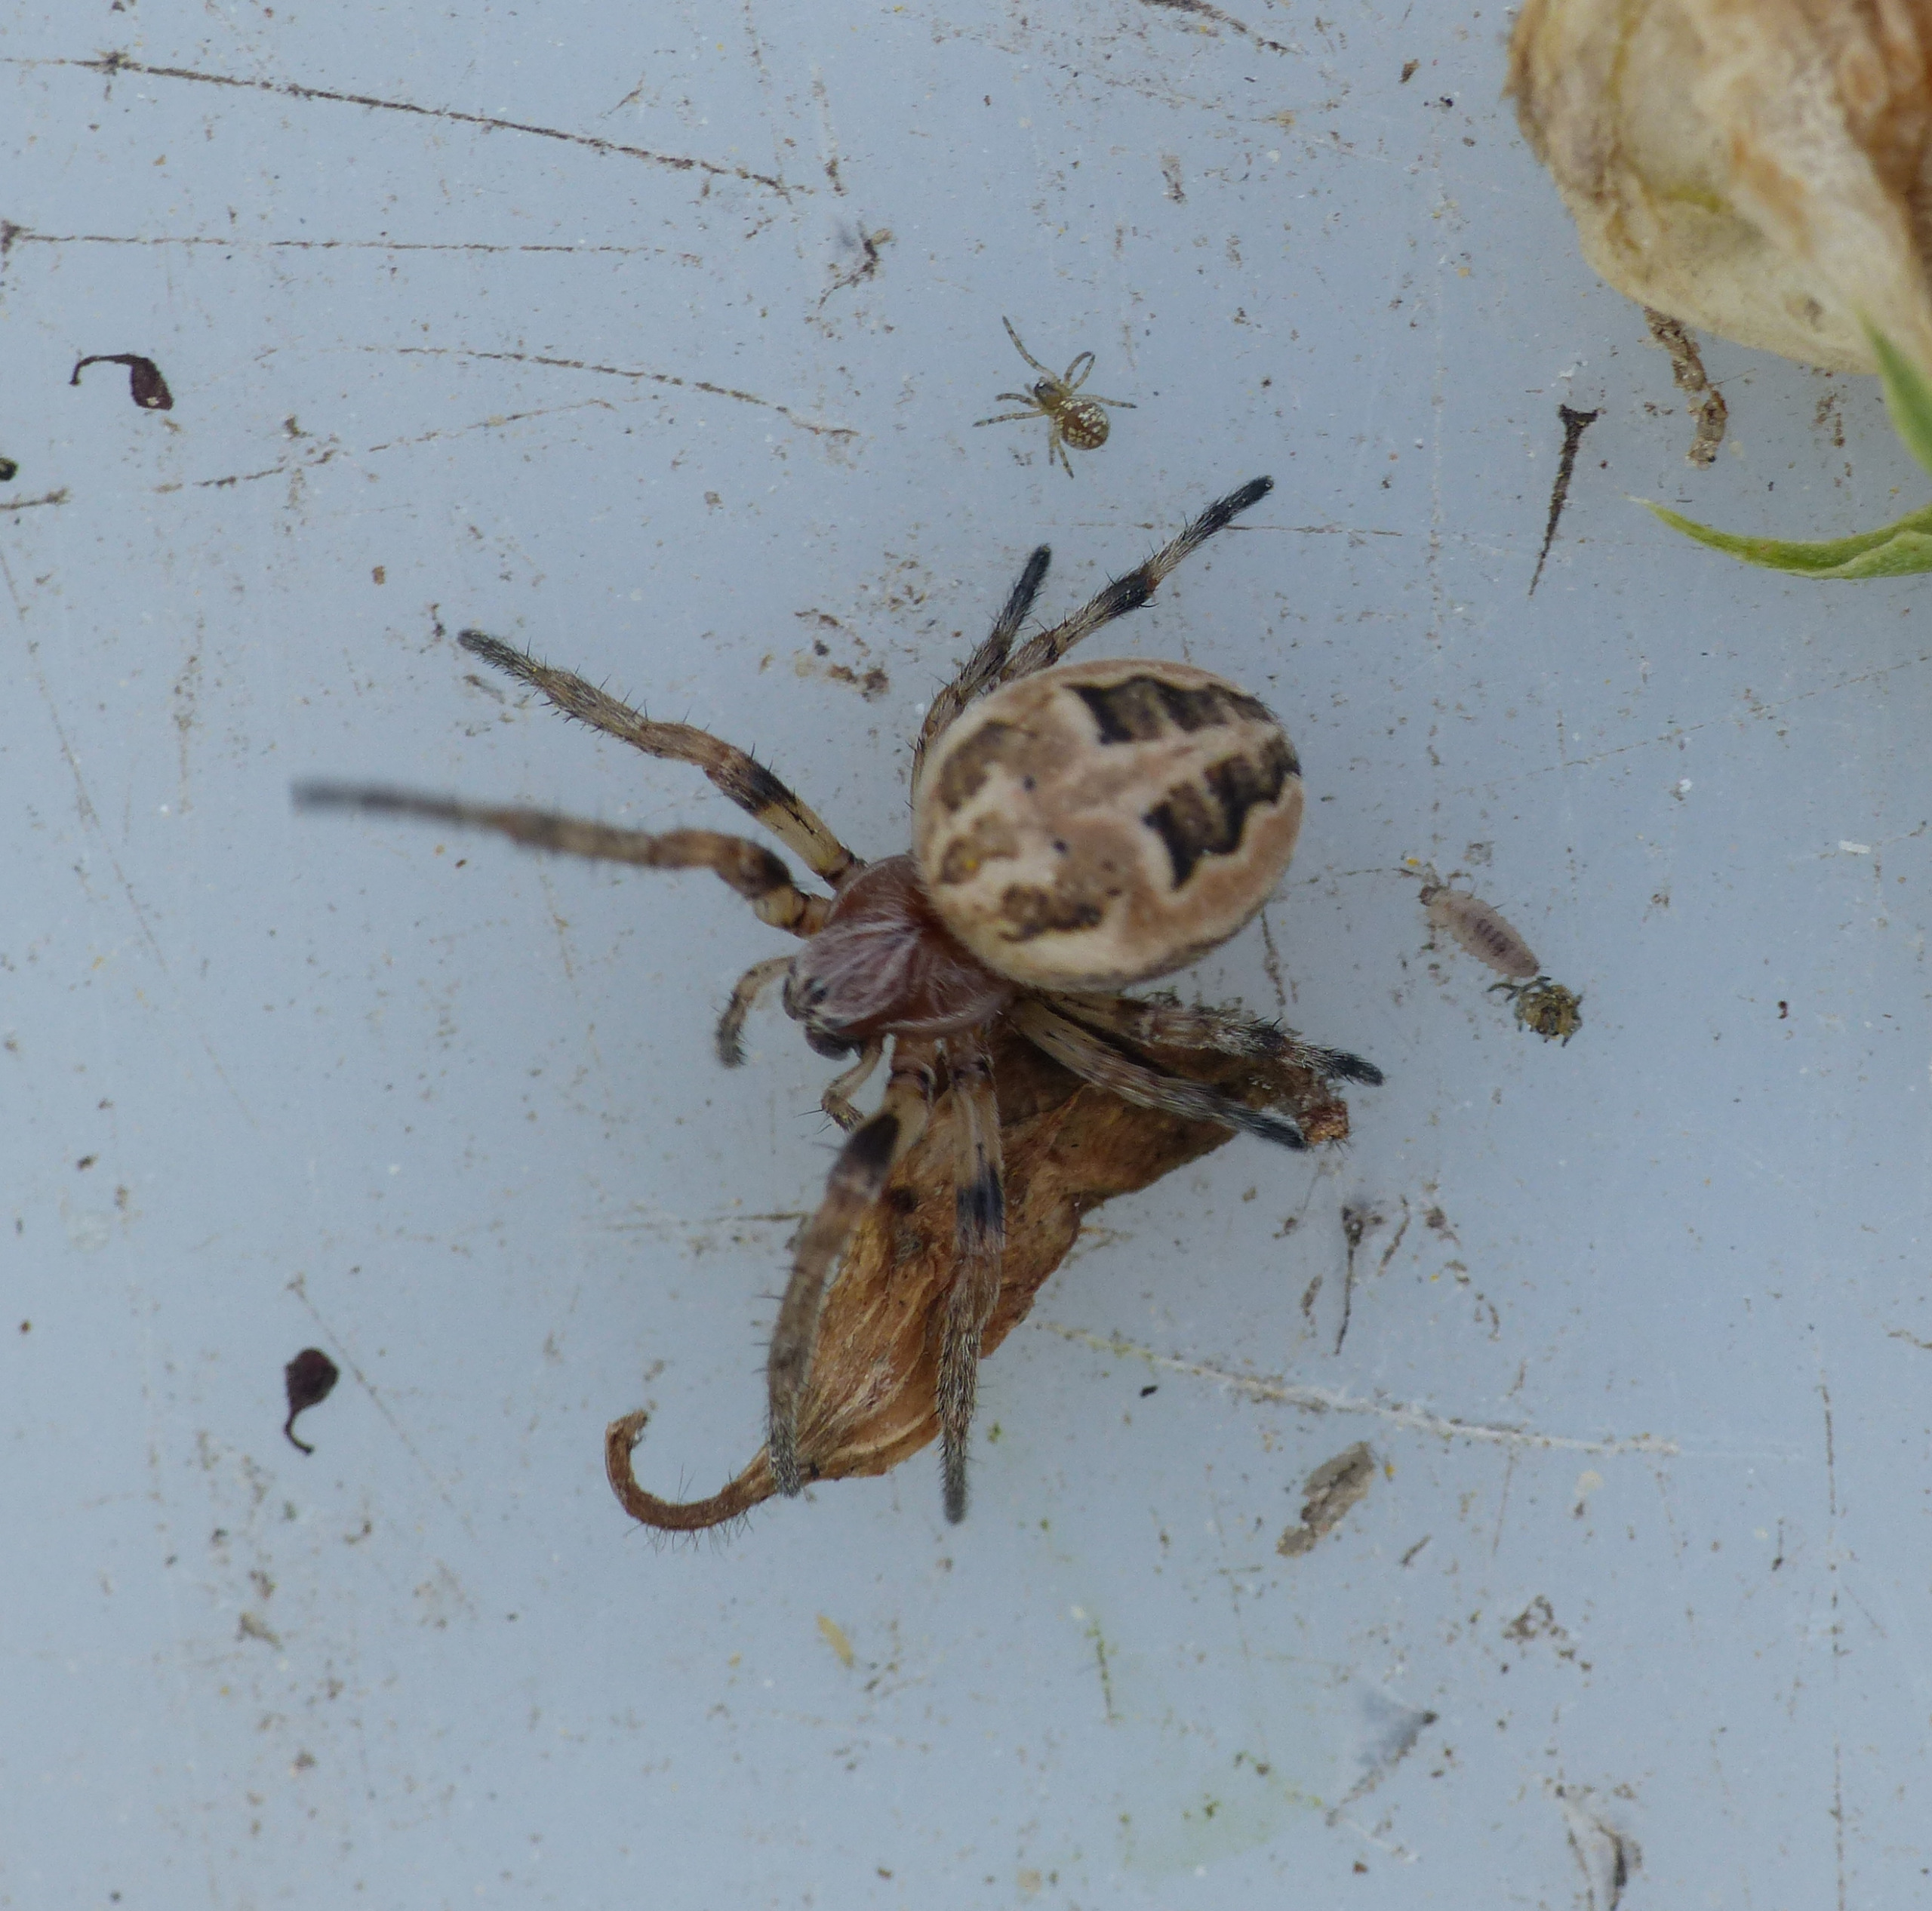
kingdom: Animalia
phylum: Arthropoda
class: Arachnida
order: Araneae
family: Araneidae
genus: Larinioides
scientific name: Larinioides cornutus
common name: Sivhjulspinder
